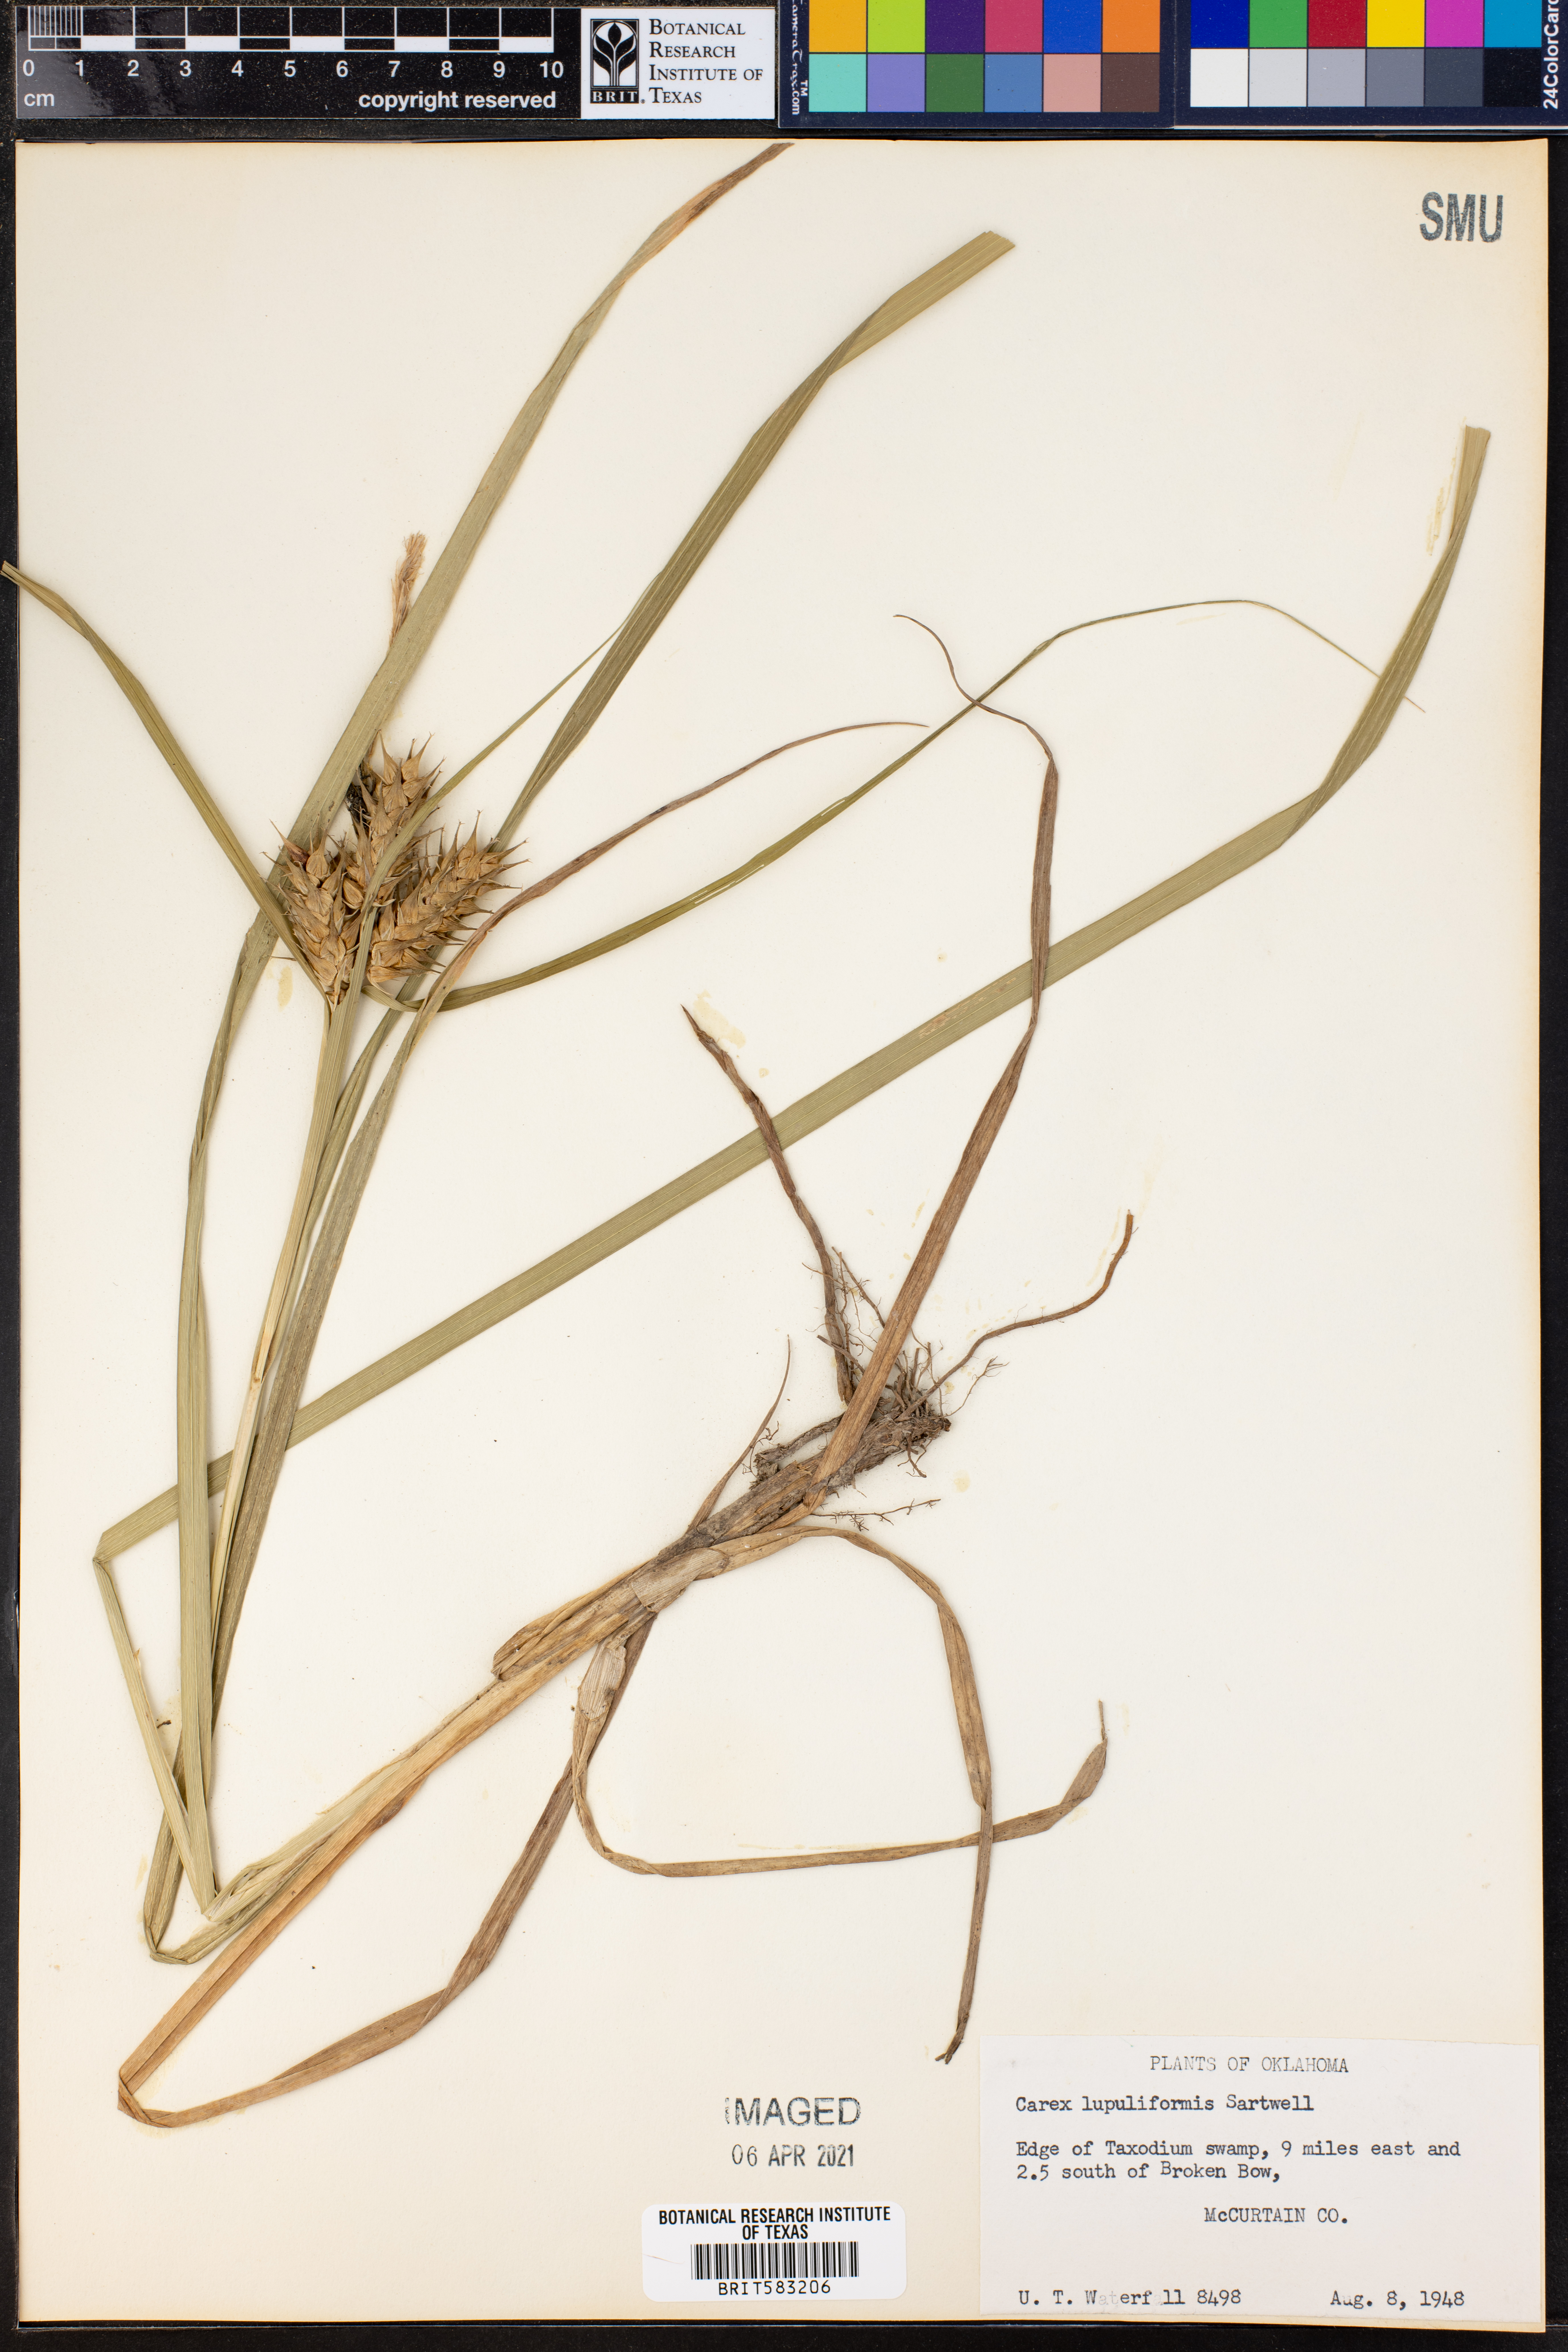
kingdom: Plantae
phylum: Tracheophyta
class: Liliopsida
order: Poales
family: Cyperaceae
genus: Carex
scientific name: Carex lupuliformis
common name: False hop sedge
